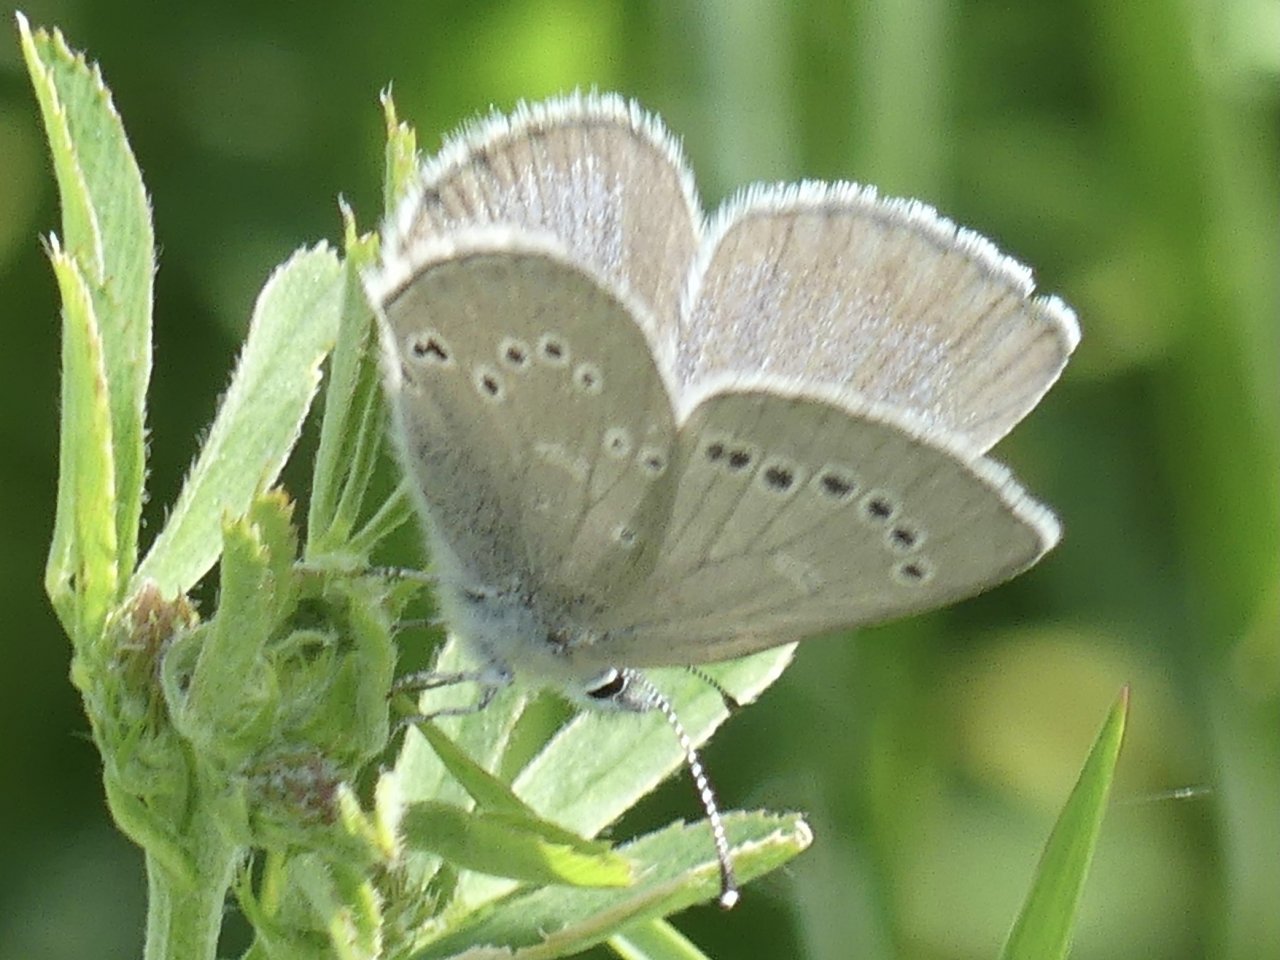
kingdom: Animalia
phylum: Arthropoda
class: Insecta
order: Lepidoptera
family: Lycaenidae
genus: Glaucopsyche
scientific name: Glaucopsyche lygdamus
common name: Silvery Blue
